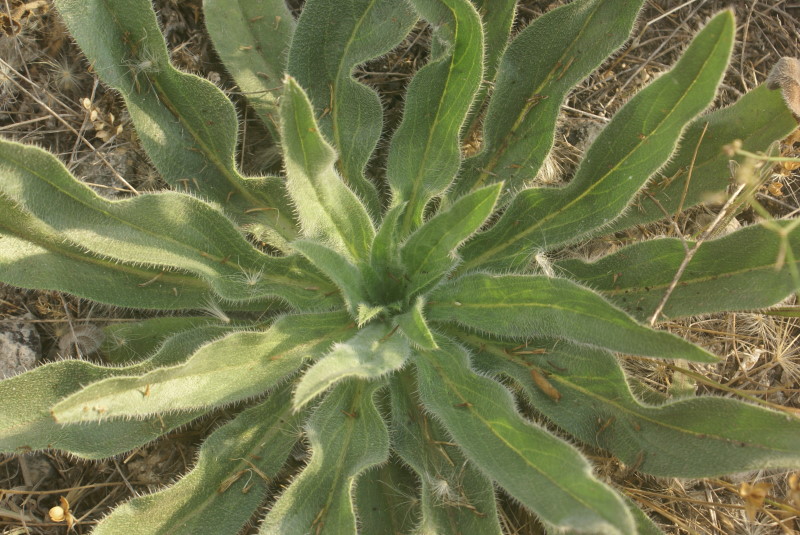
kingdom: Plantae
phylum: Tracheophyta
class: Magnoliopsida
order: Lamiales
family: Scrophulariaceae
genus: Verbascum
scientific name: Verbascum
